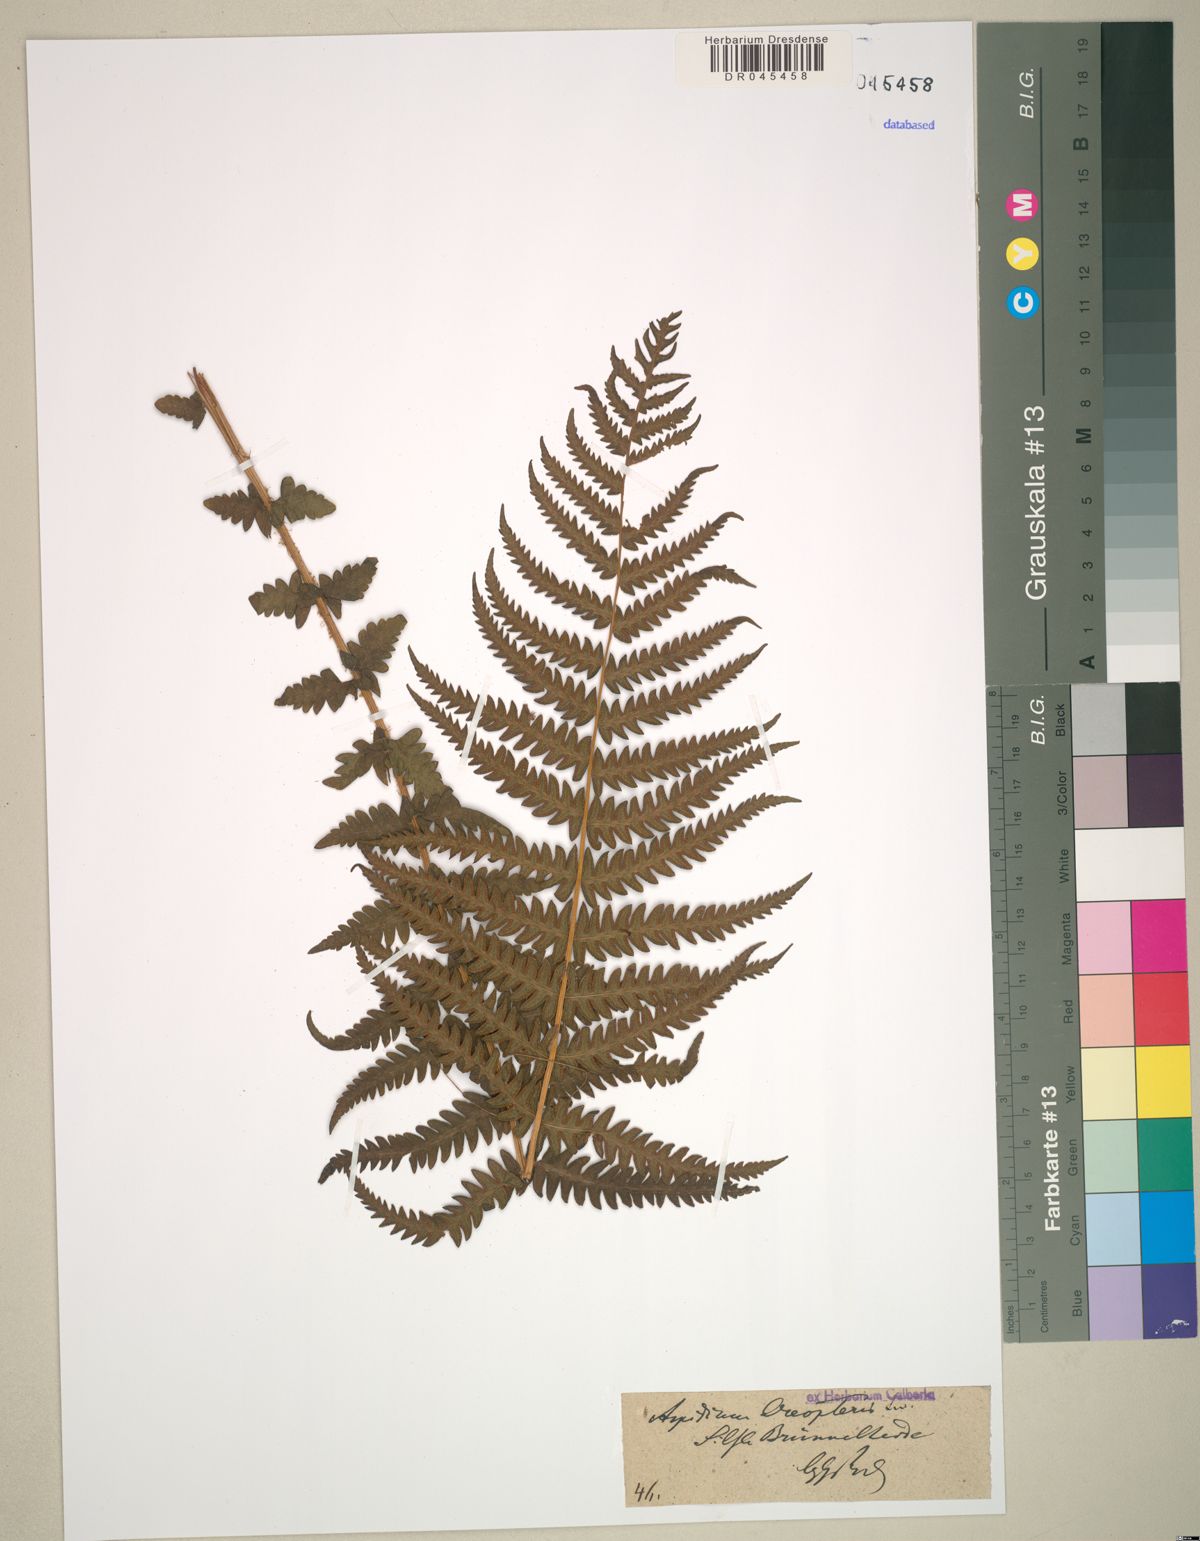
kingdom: Plantae
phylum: Tracheophyta
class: Polypodiopsida
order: Polypodiales
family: Thelypteridaceae
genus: Oreopteris
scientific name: Oreopteris limbosperma
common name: Lemon-scented fern
